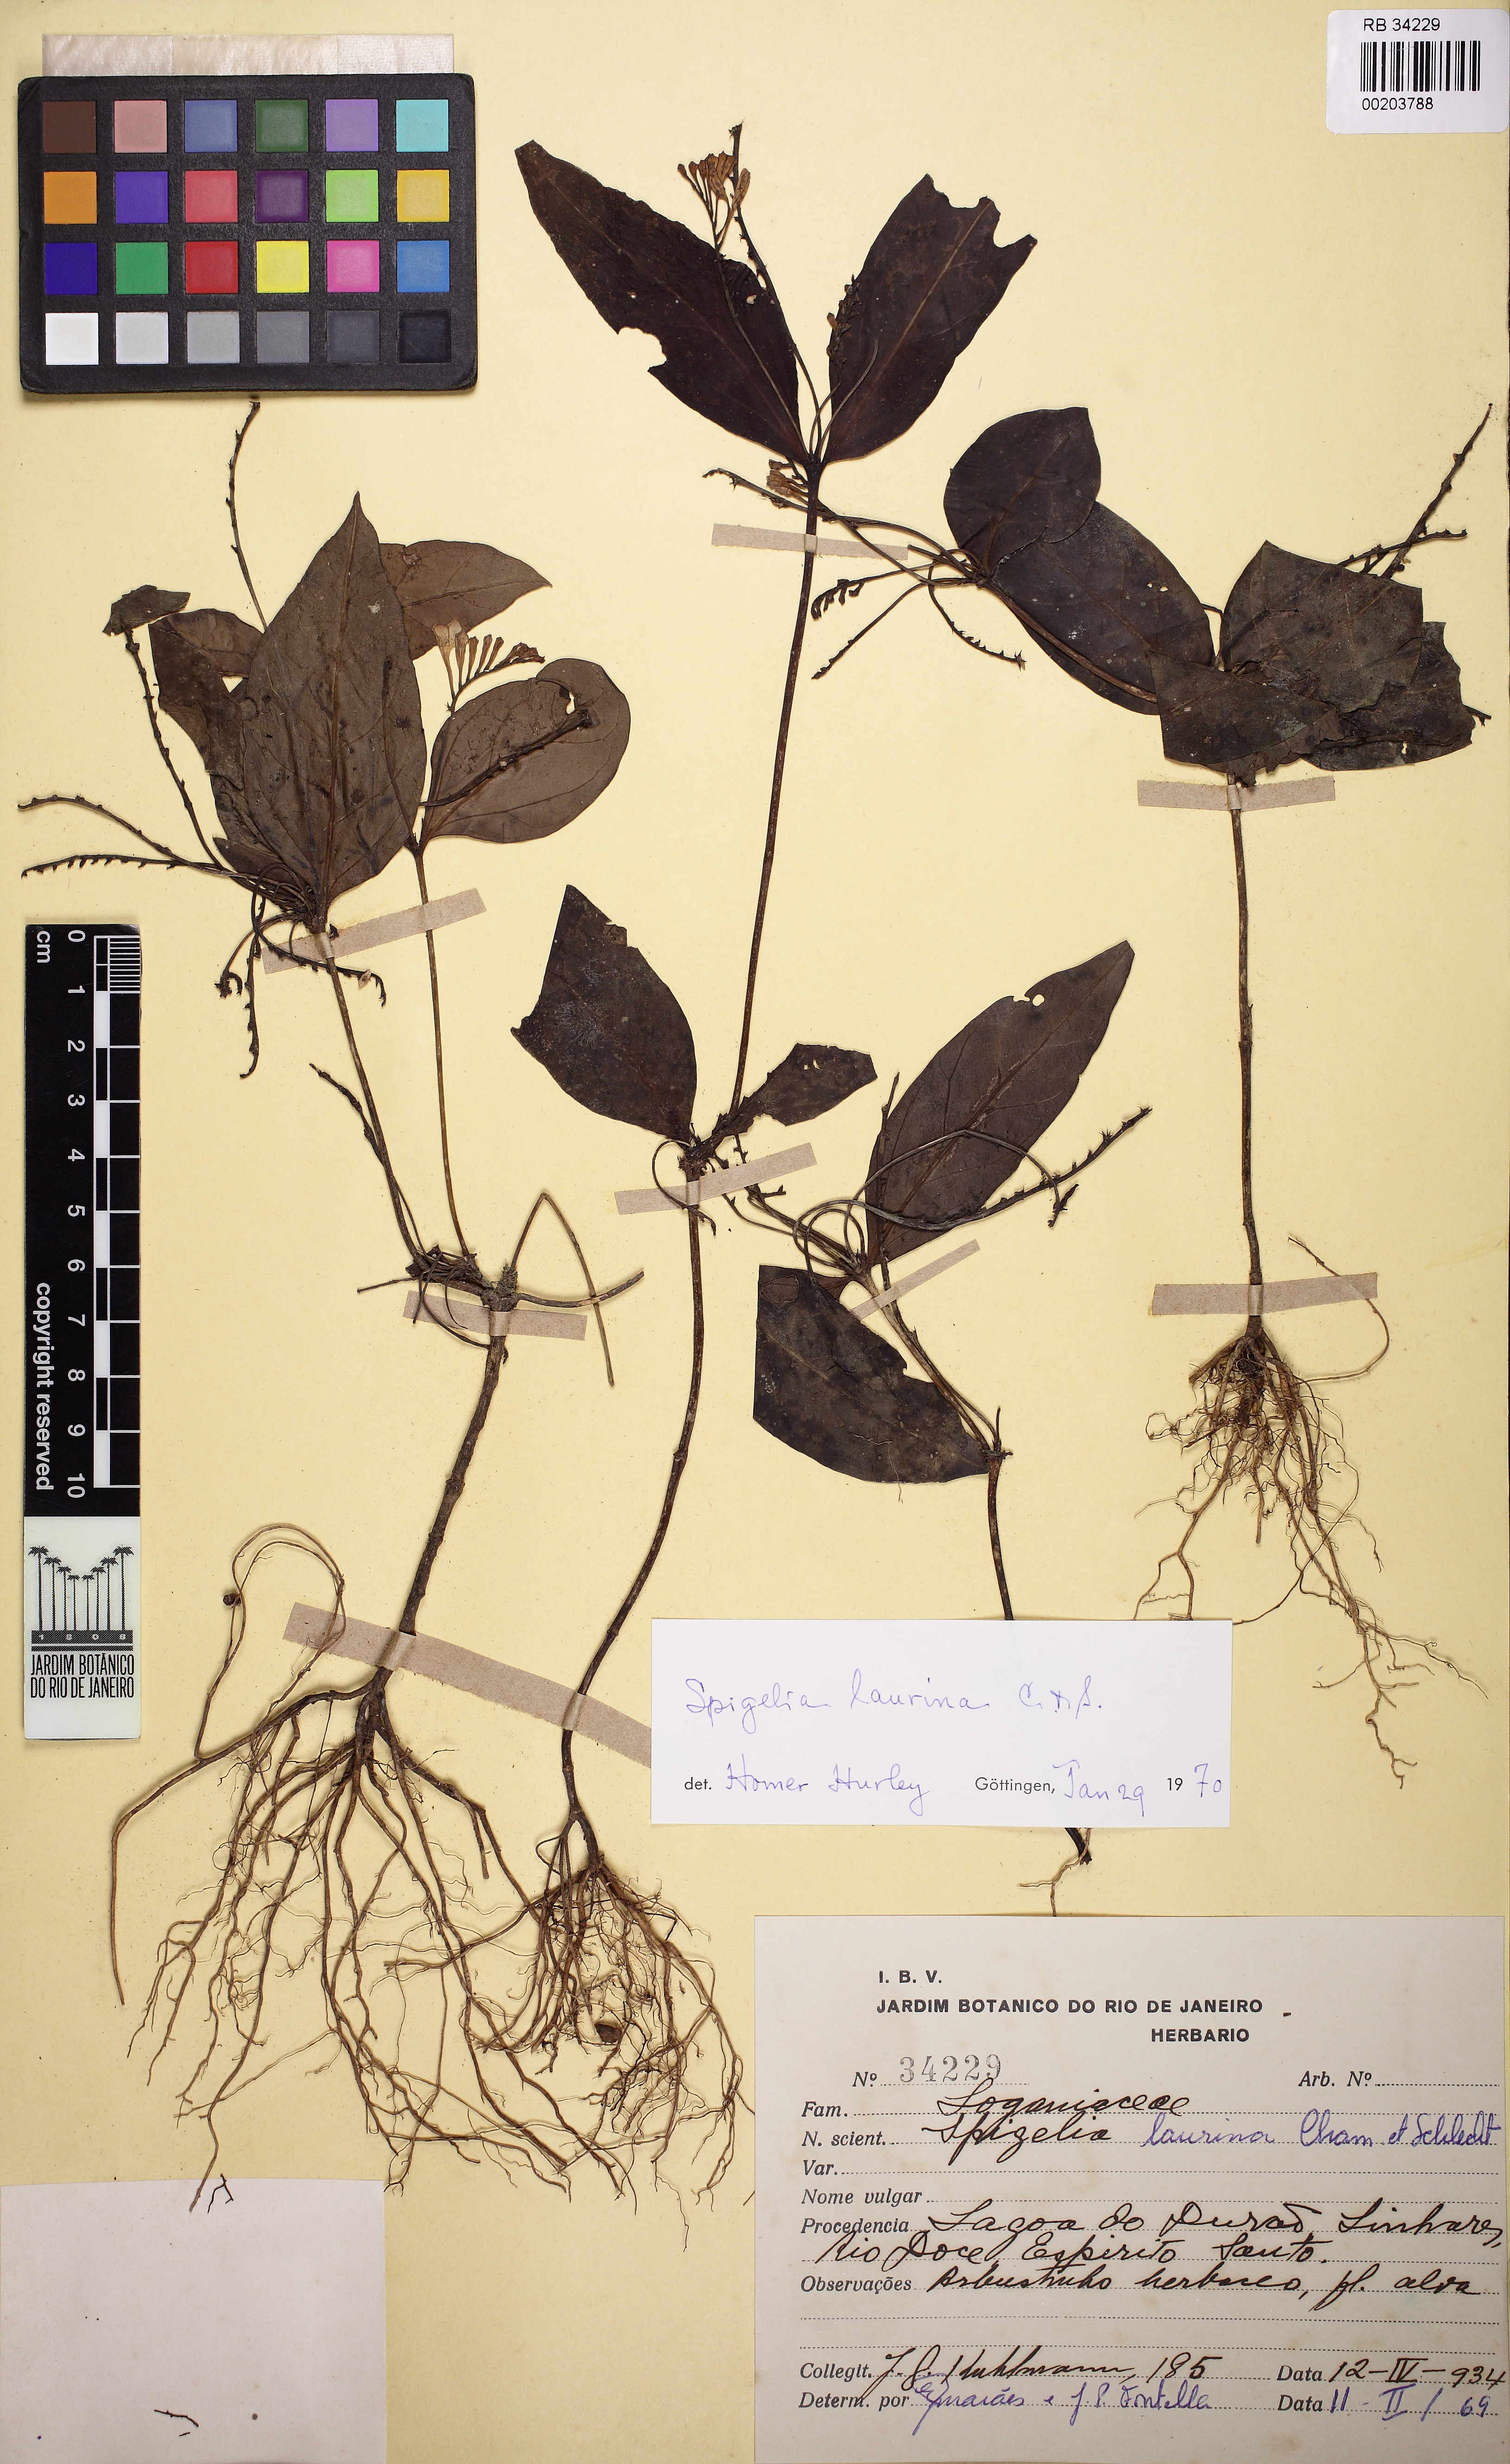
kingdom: Plantae
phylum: Tracheophyta
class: Magnoliopsida
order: Gentianales
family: Loganiaceae
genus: Spigelia
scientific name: Spigelia laurina
